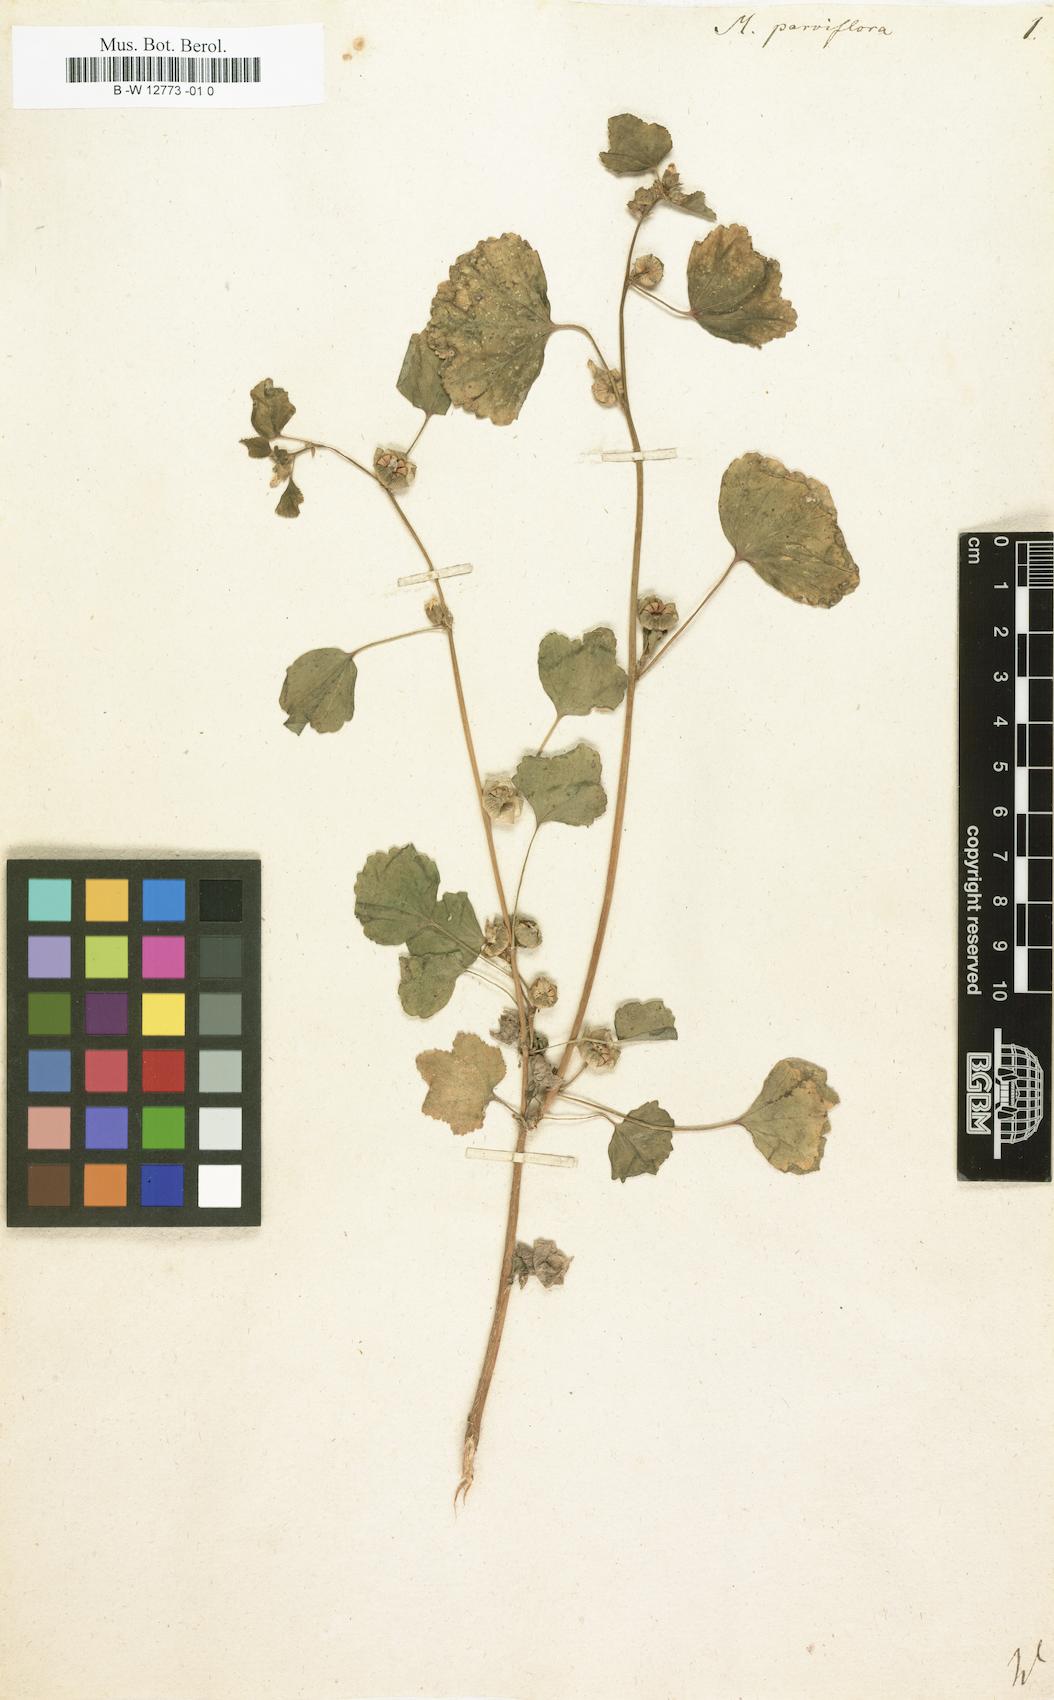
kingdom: Plantae
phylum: Tracheophyta
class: Magnoliopsida
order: Malvales
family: Malvaceae
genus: Malva
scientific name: Malva parviflora
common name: Least mallow
